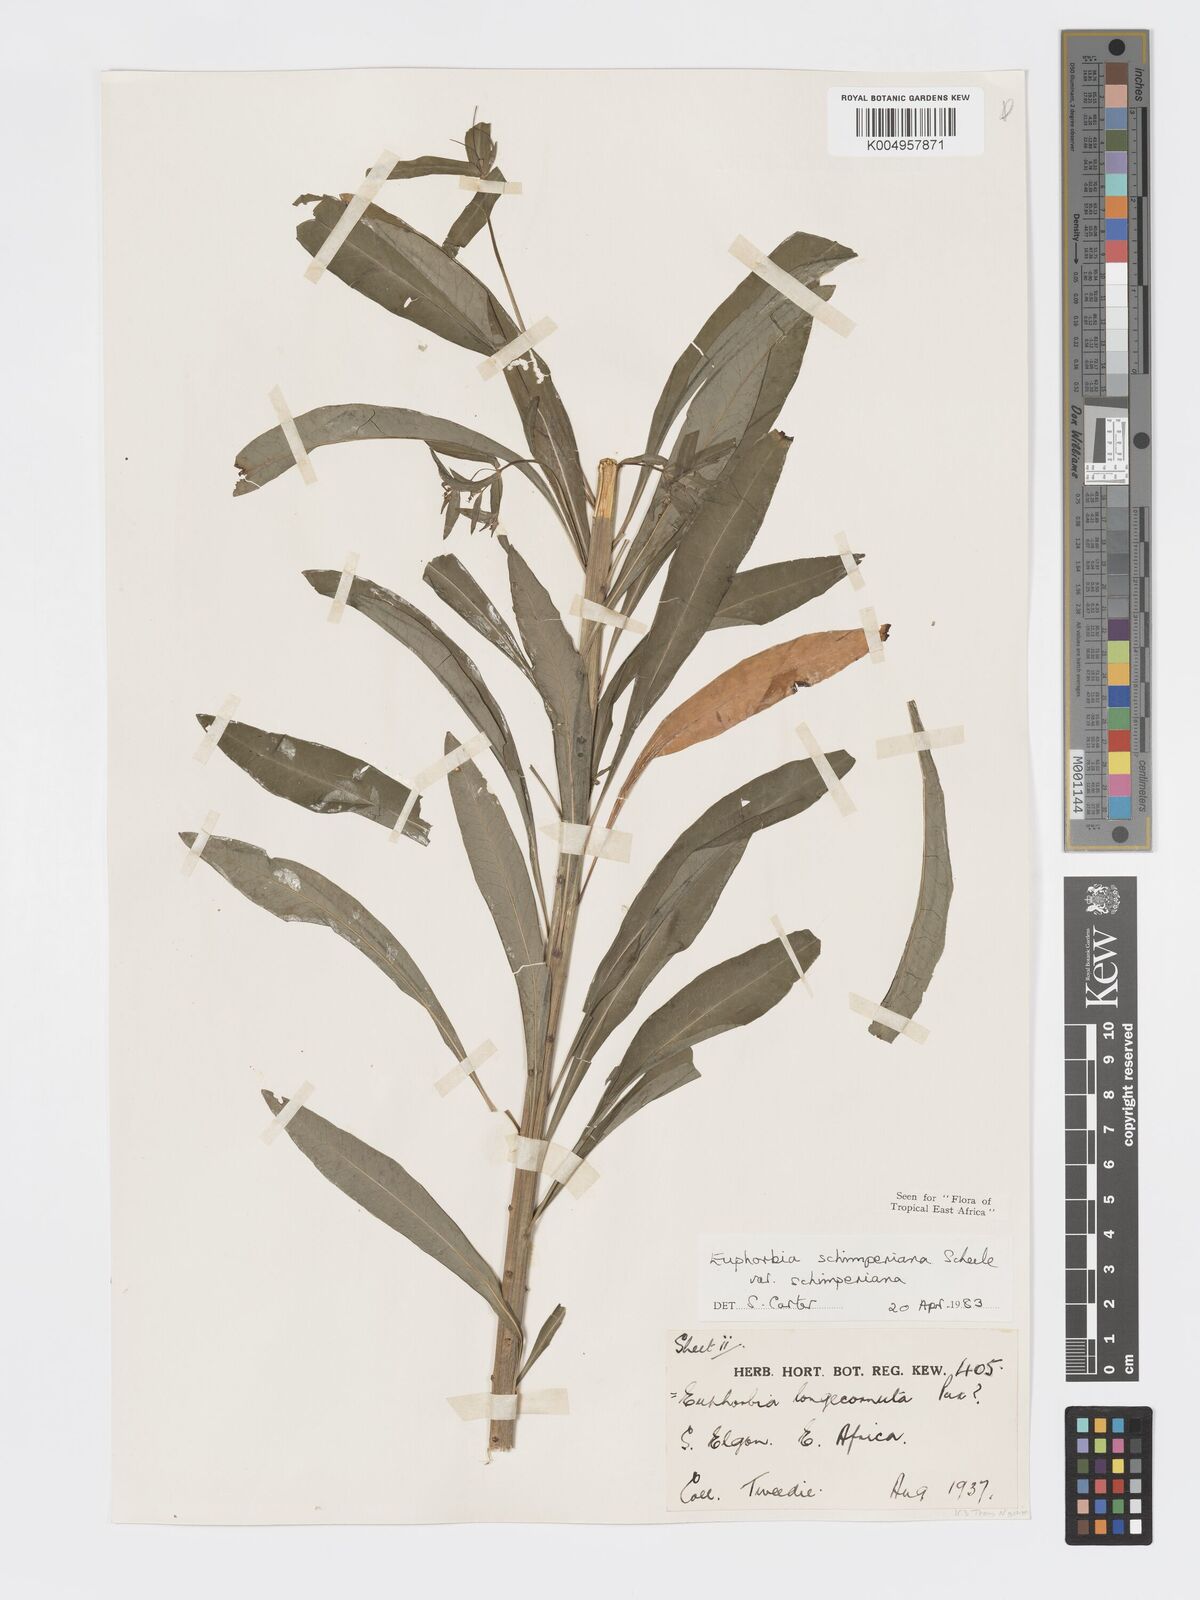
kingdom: Plantae
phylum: Tracheophyta
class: Magnoliopsida
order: Malpighiales
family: Euphorbiaceae
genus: Euphorbia
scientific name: Euphorbia schimperiana
